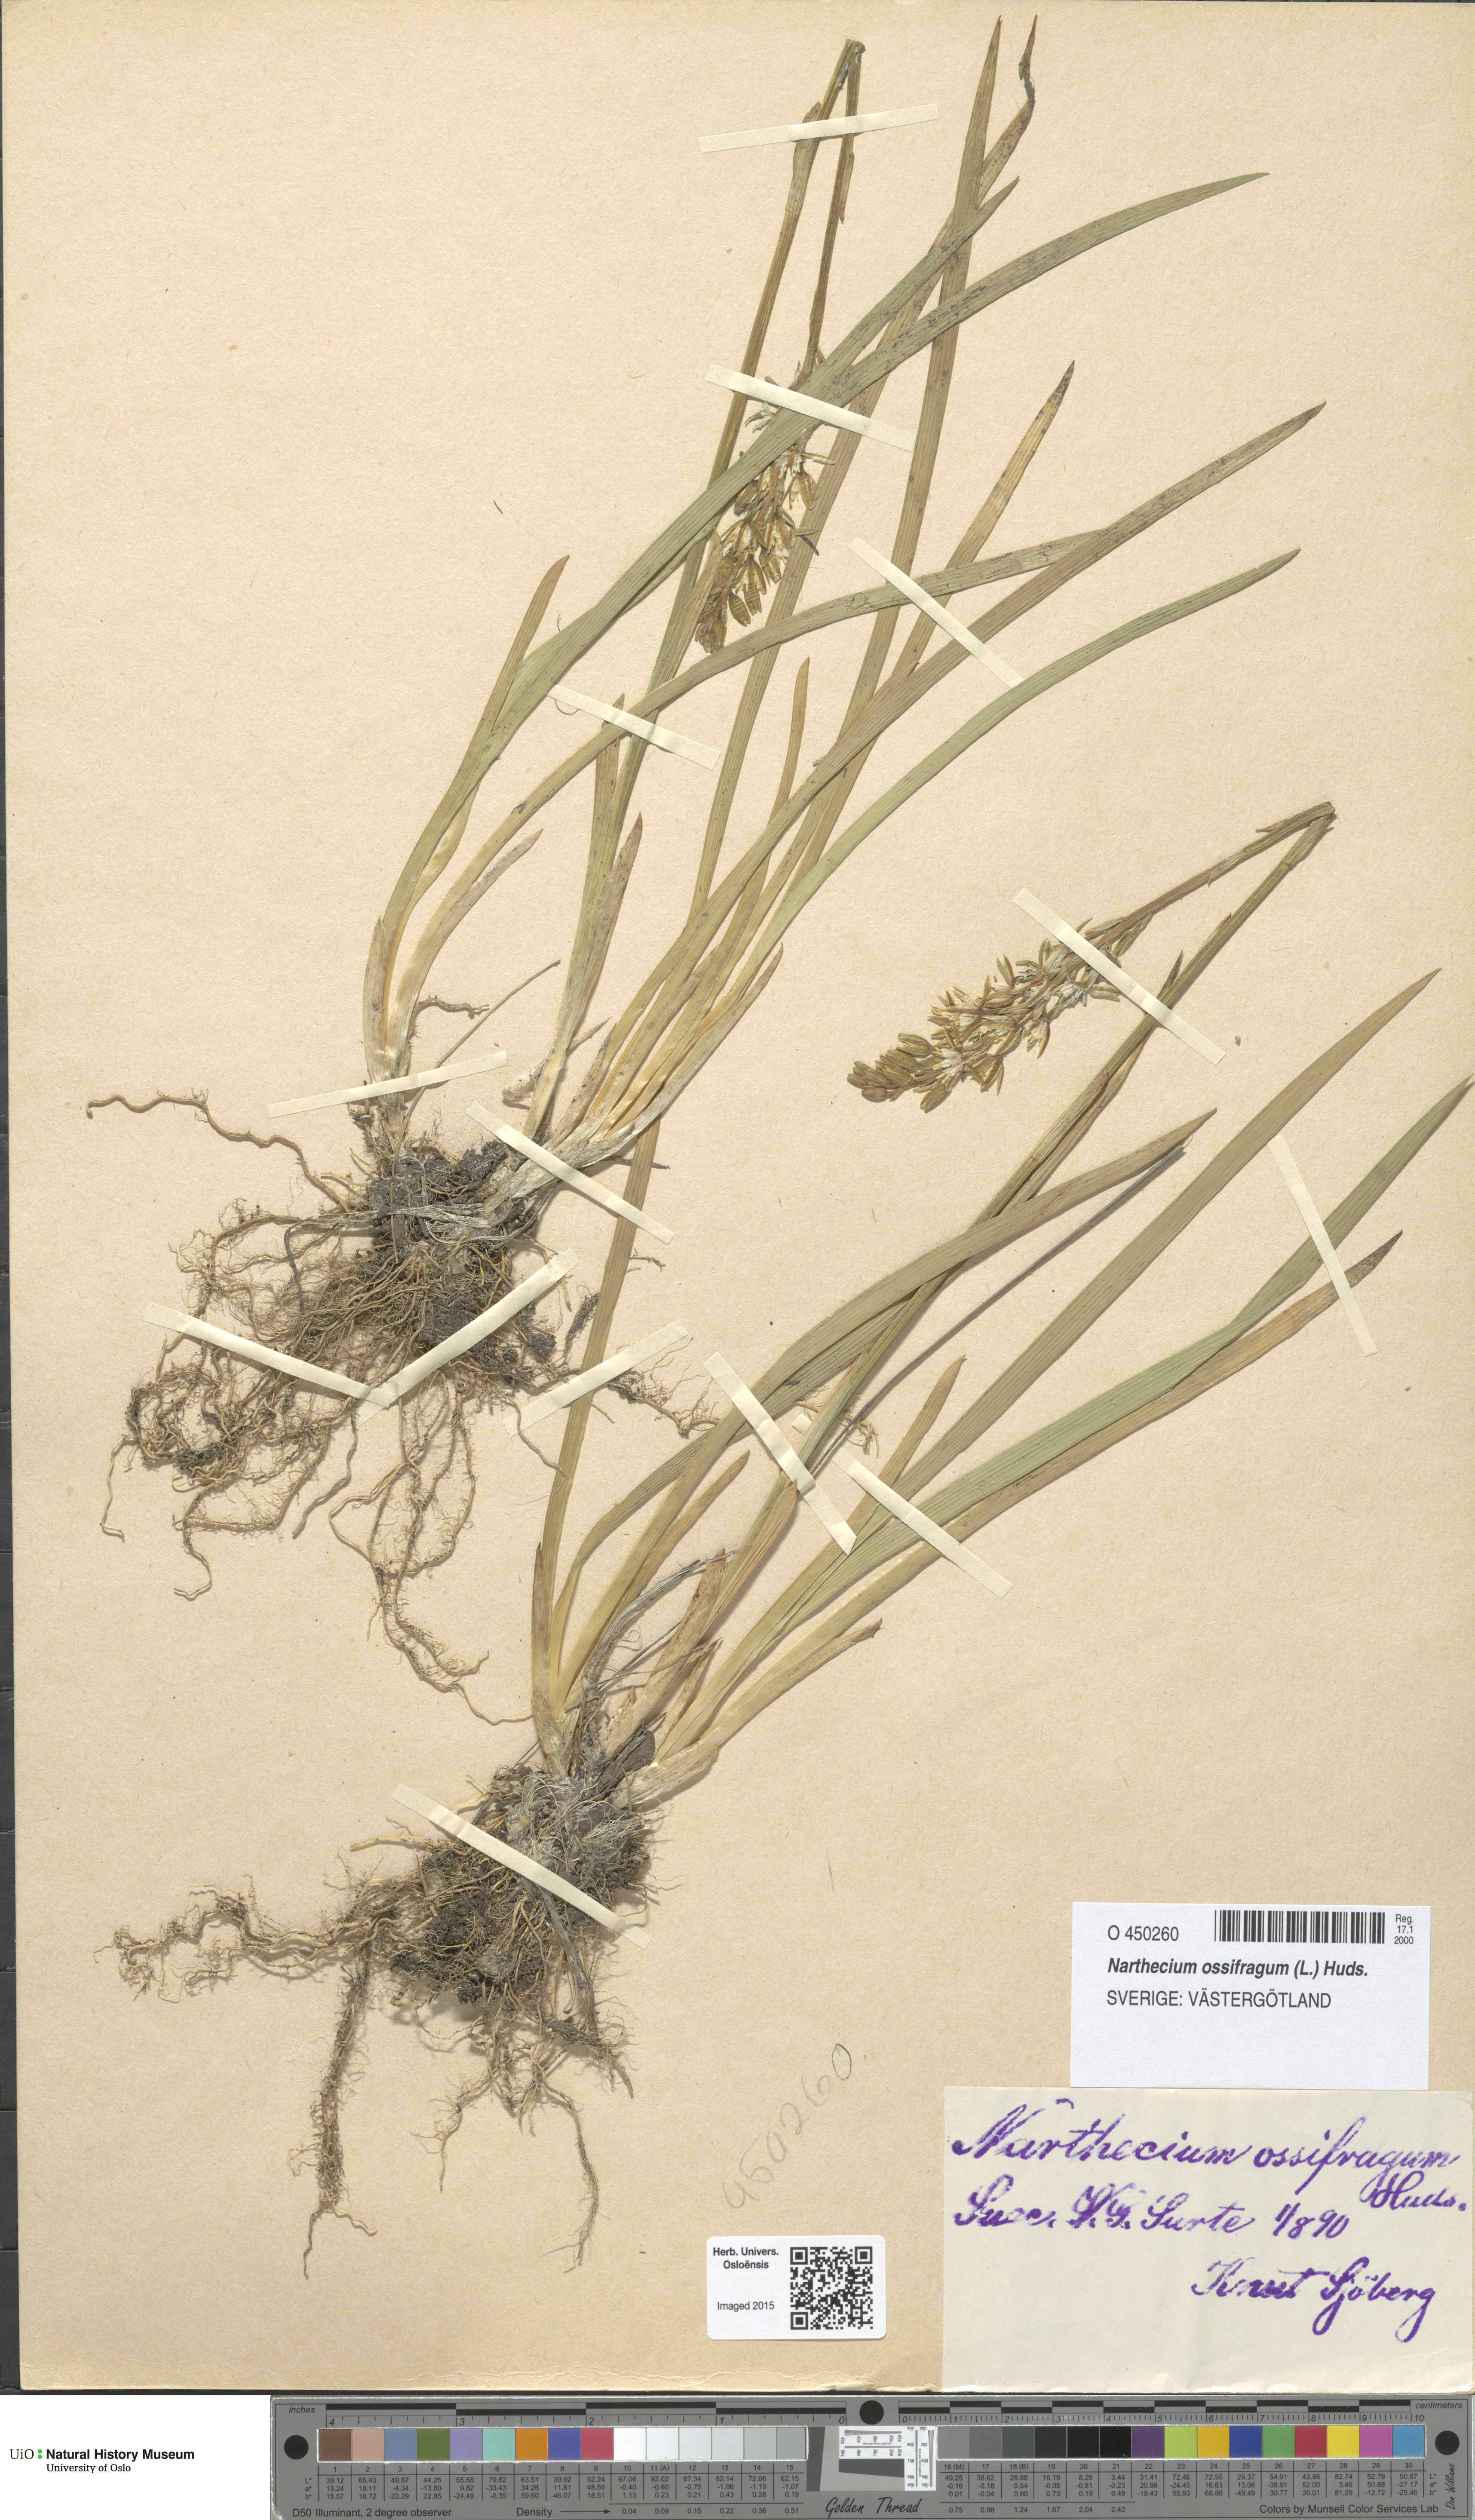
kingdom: Plantae
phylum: Tracheophyta
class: Liliopsida
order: Dioscoreales
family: Nartheciaceae
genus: Narthecium
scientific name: Narthecium ossifragum
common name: Bog asphodel
